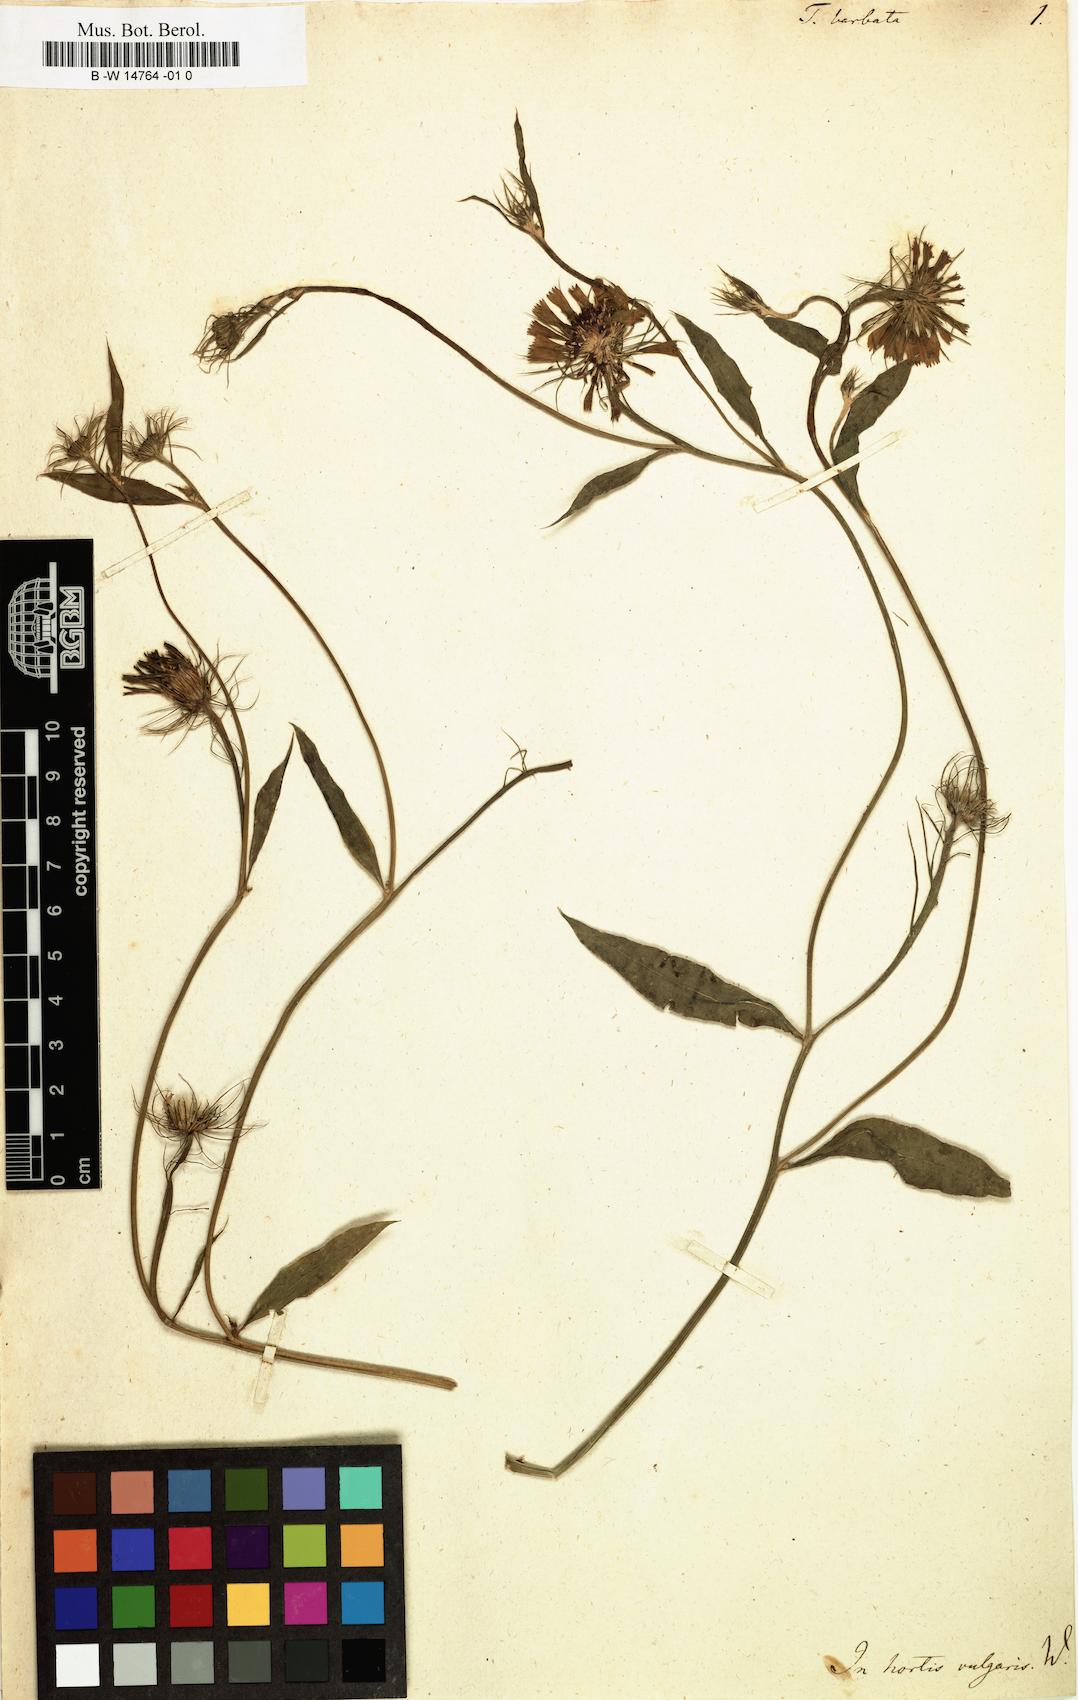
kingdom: Plantae
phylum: Tracheophyta
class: Magnoliopsida
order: Asterales
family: Asteraceae
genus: Tolpis
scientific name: Tolpis barbata
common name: Yellow hawkweed
